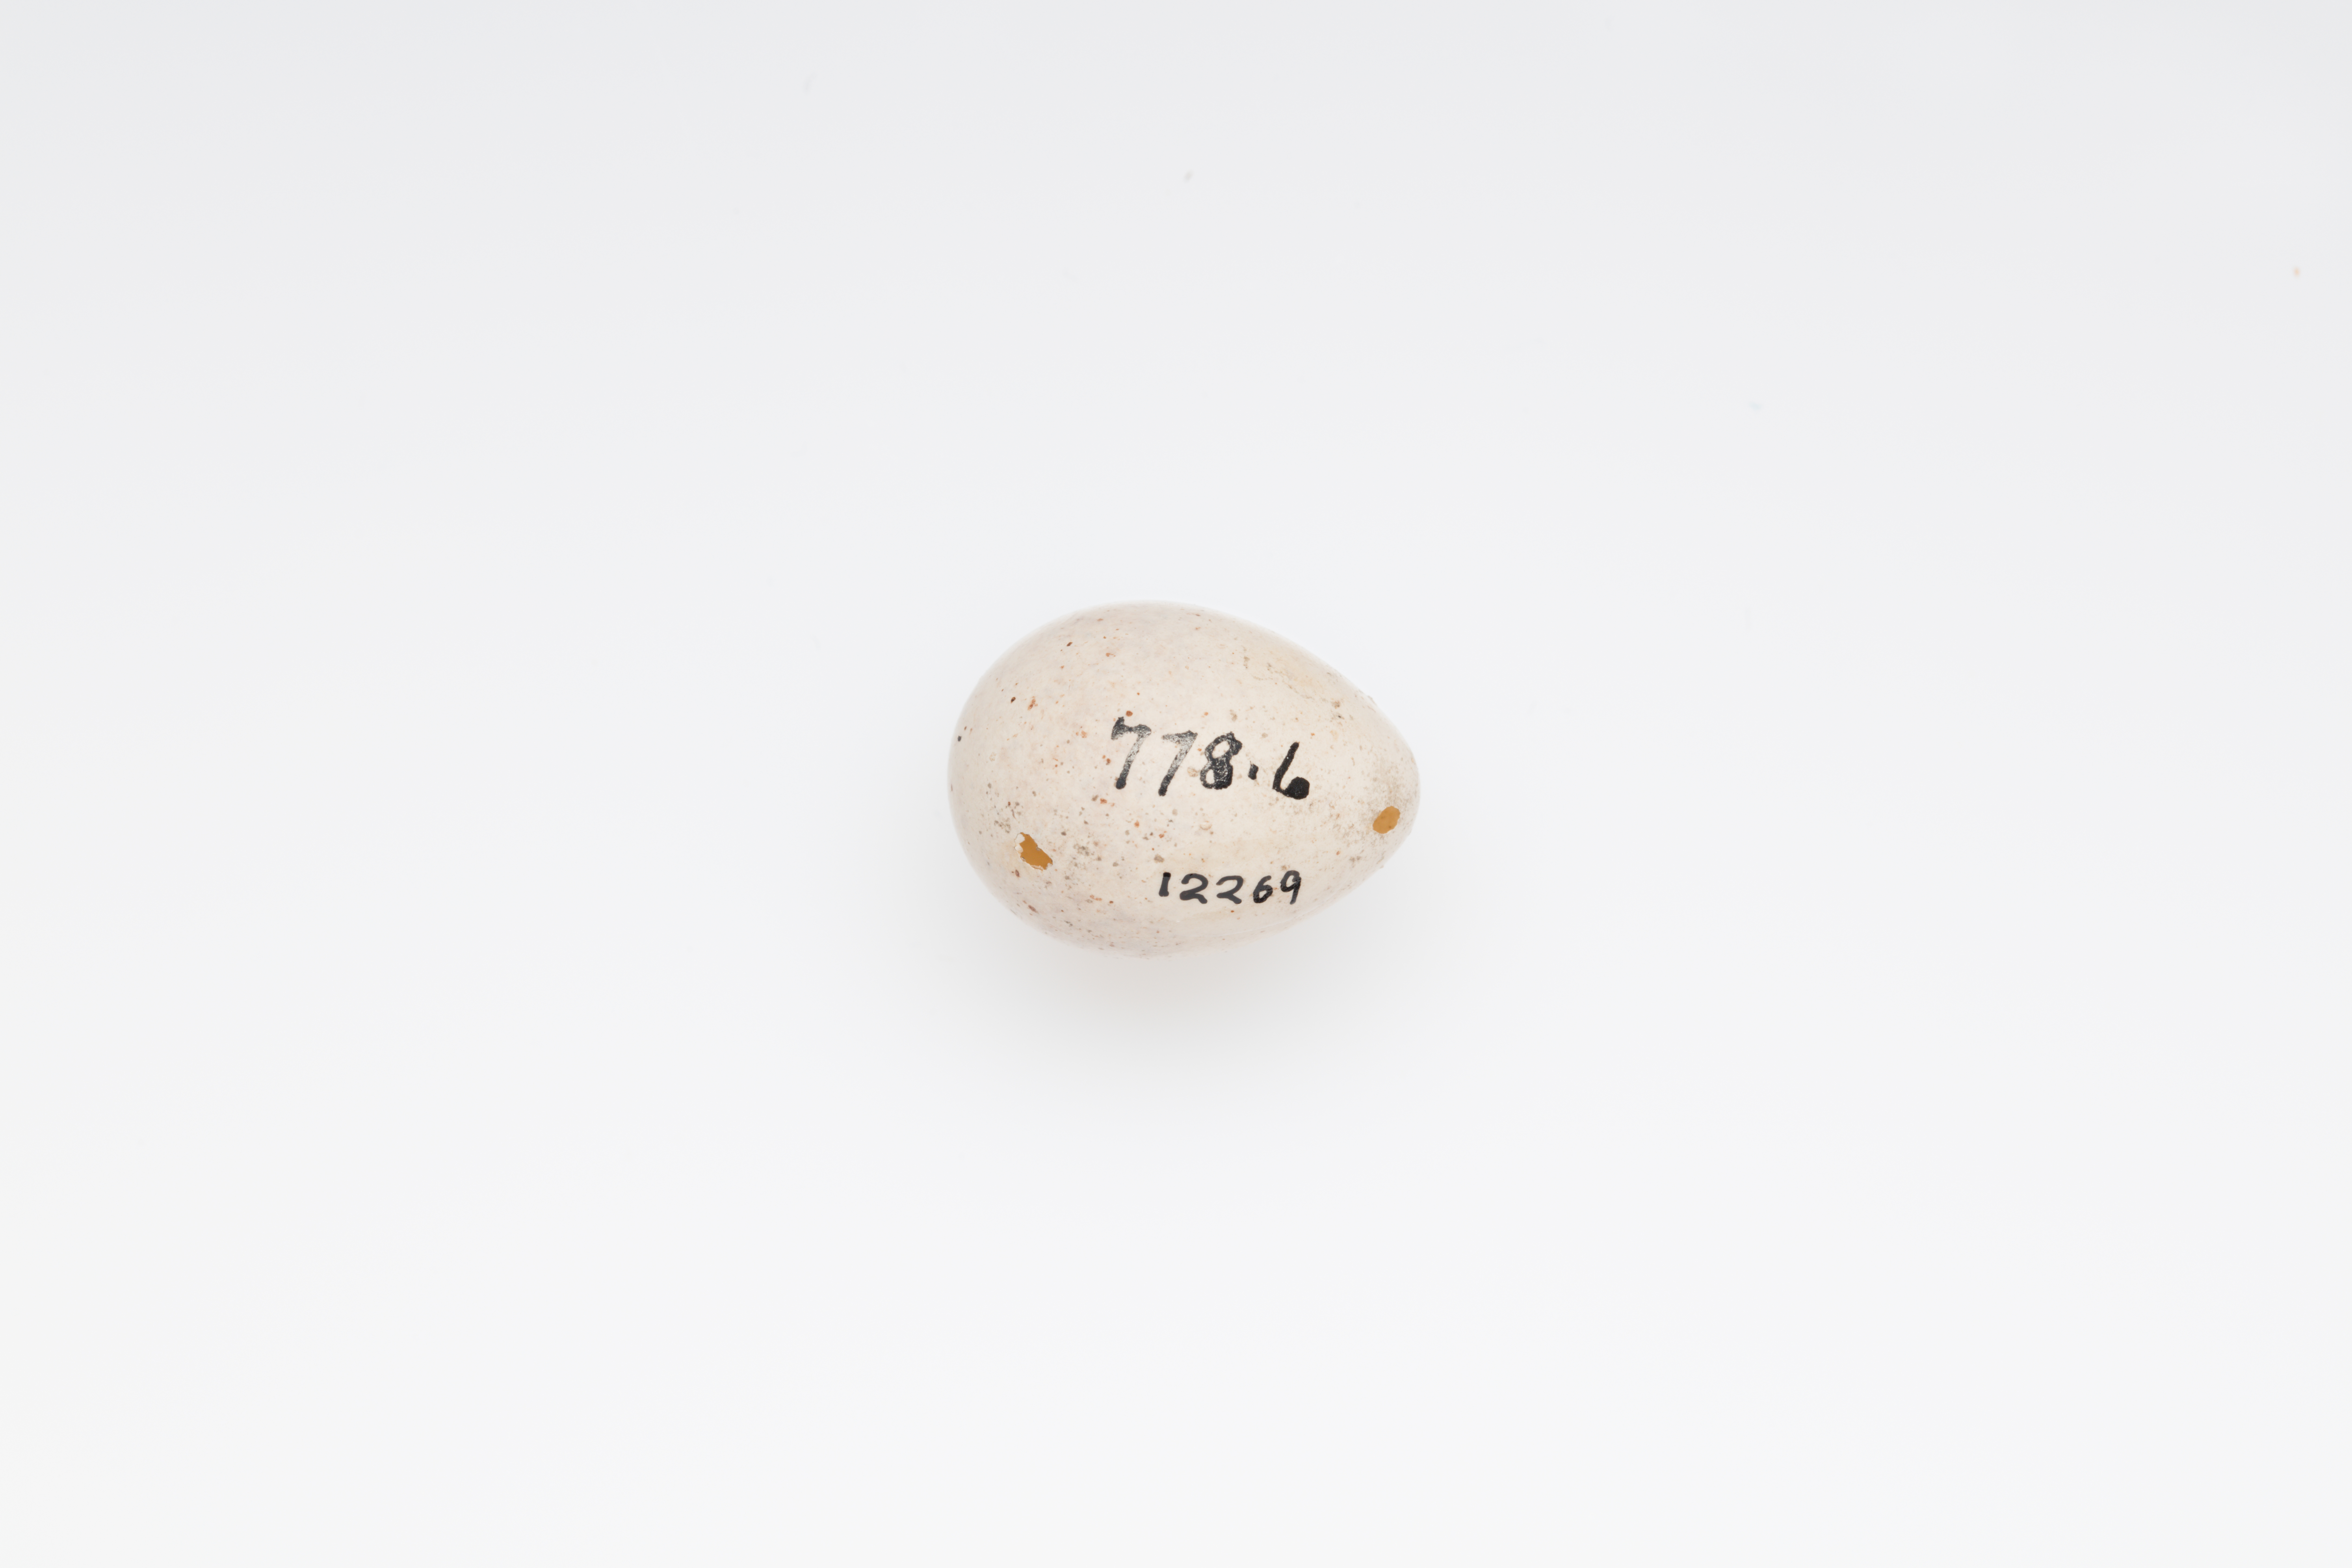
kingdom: Animalia
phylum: Chordata
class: Aves
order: Passeriformes
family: Fringillidae
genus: Fringilla
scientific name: Fringilla coelebs
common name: Common chaffinch
